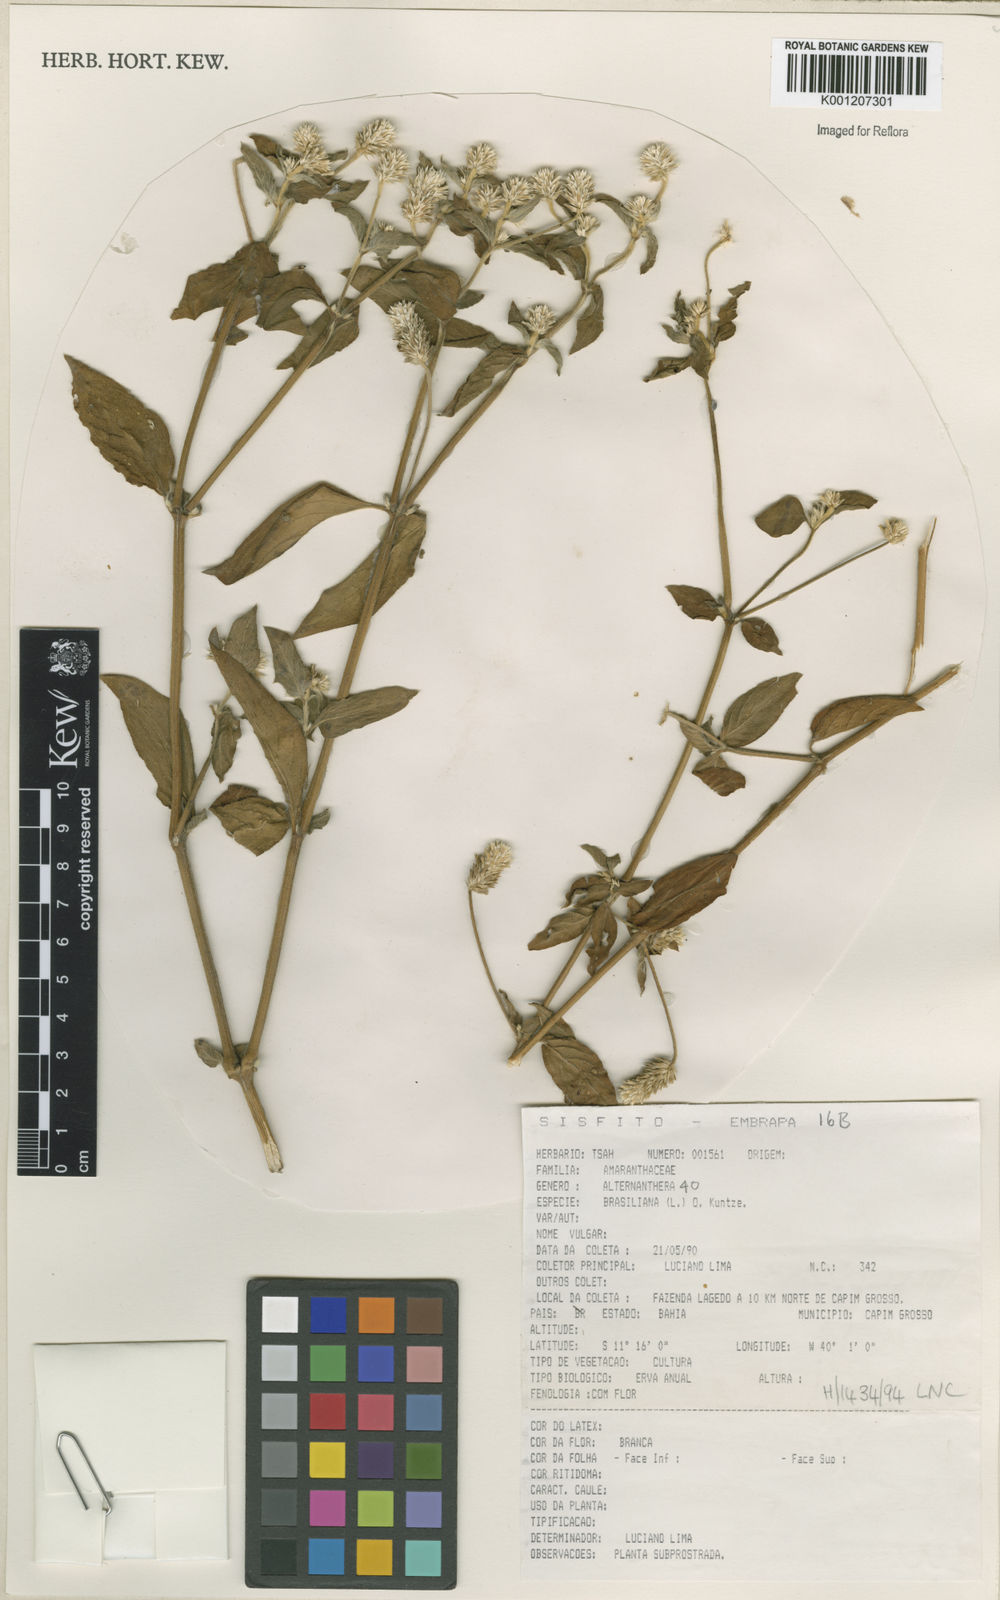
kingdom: Plantae
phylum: Tracheophyta
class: Magnoliopsida
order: Caryophyllales
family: Amaranthaceae
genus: Alternanthera
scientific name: Alternanthera brasiliana
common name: Brazilian joyweed
